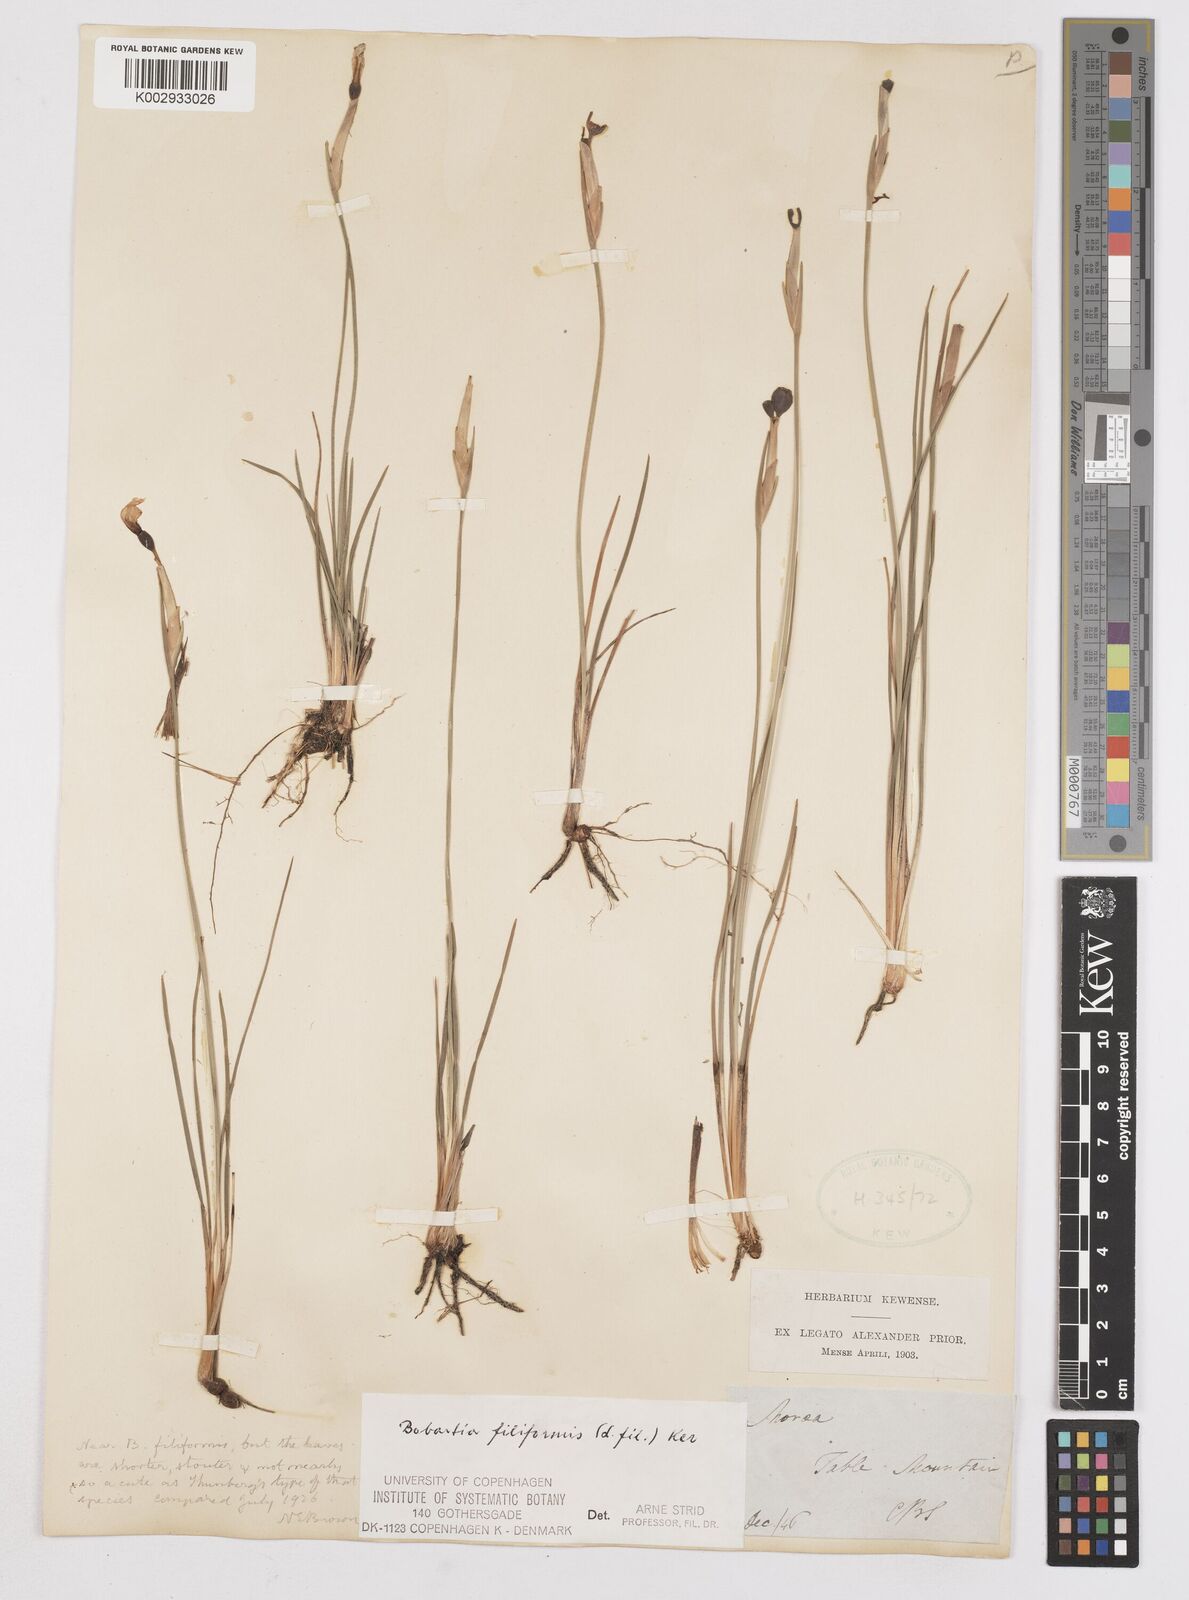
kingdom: Plantae
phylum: Tracheophyta
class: Liliopsida
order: Asparagales
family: Iridaceae
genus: Bobartia
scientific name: Bobartia filiformis
